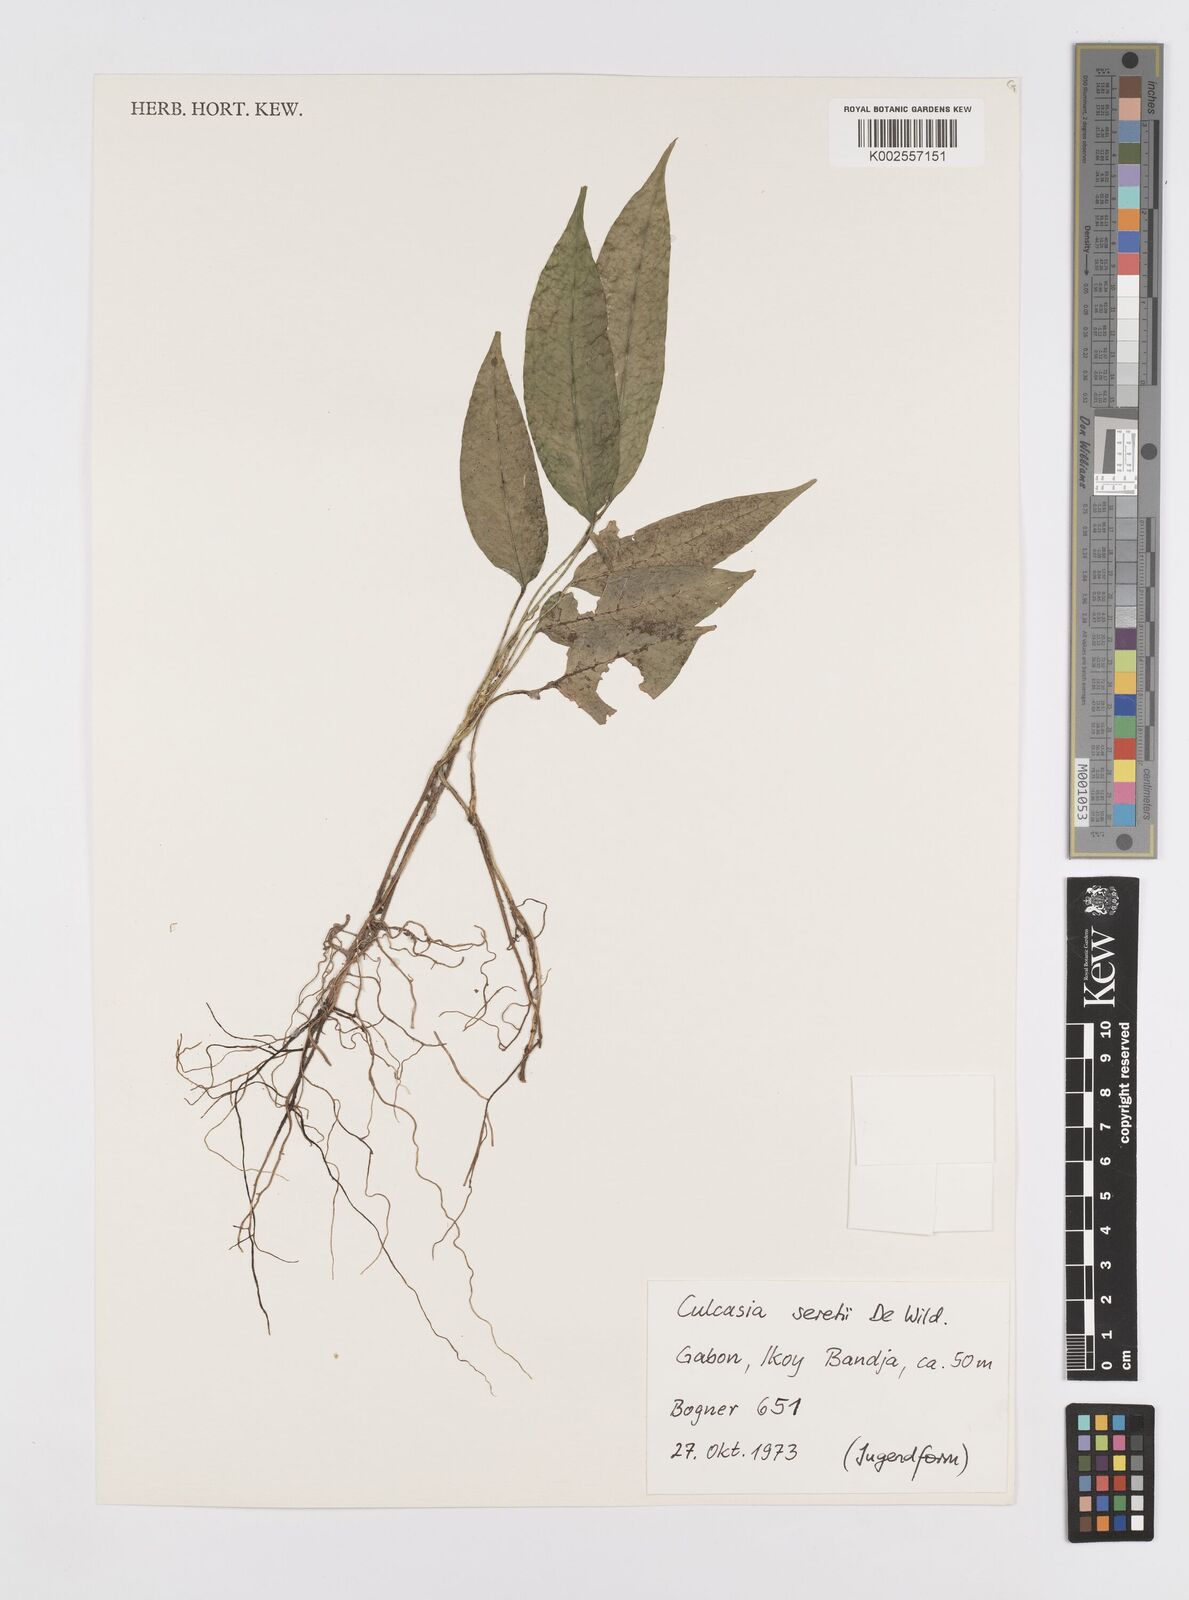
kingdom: Plantae
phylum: Tracheophyta
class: Liliopsida
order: Alismatales
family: Araceae
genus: Culcasia
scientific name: Culcasia seretii
